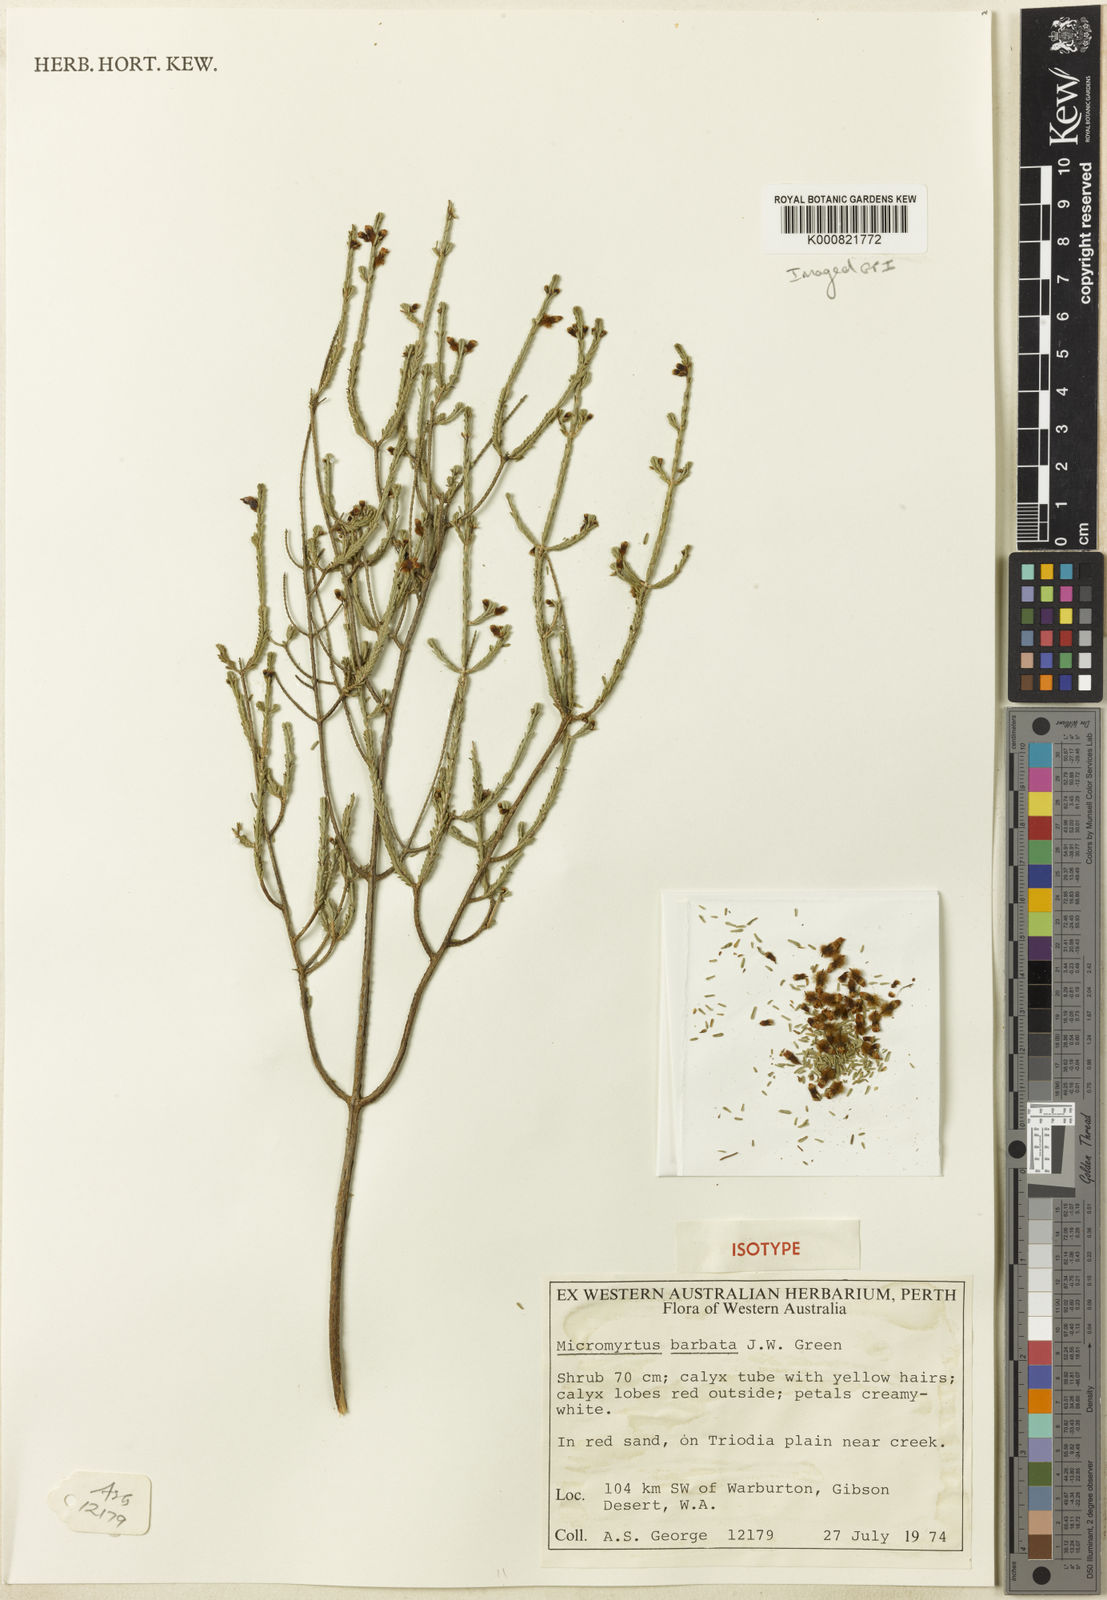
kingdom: Plantae
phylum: Tracheophyta
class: Magnoliopsida
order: Myrtales
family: Myrtaceae
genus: Micromyrtus
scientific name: Micromyrtus barbata
